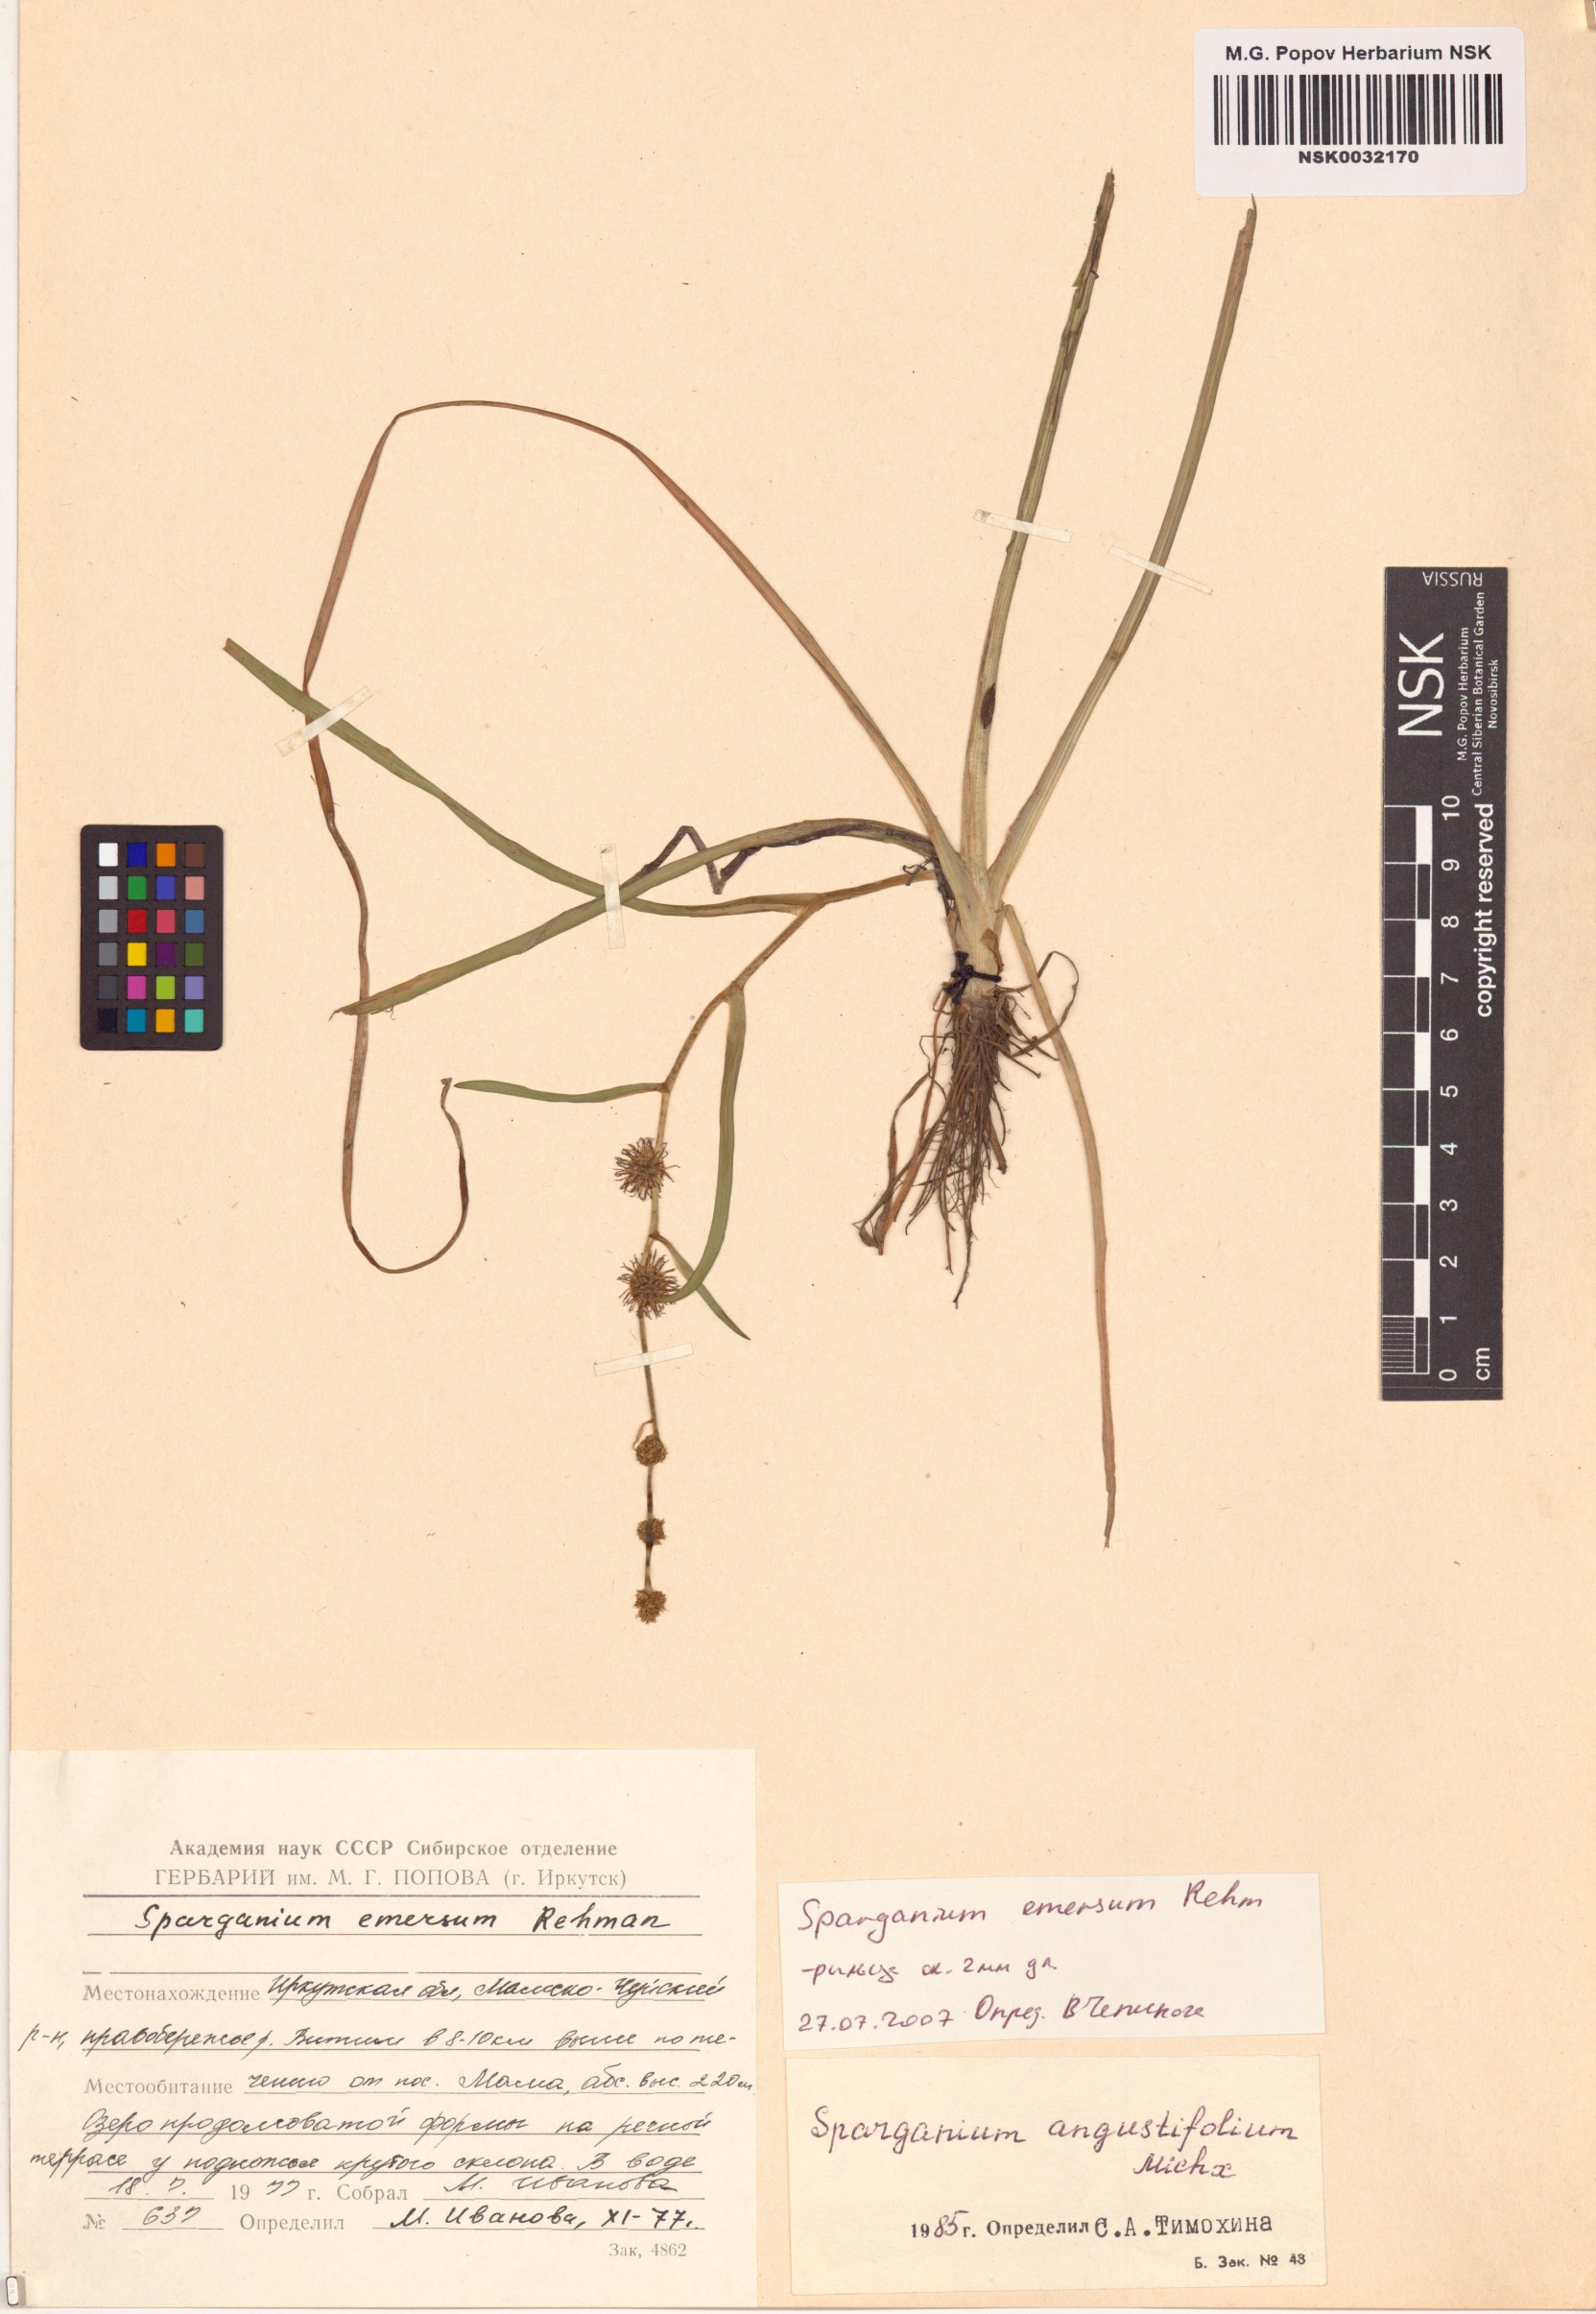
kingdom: Plantae
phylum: Tracheophyta
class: Liliopsida
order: Poales
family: Typhaceae
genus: Sparganium
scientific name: Sparganium emersum
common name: Unbranched bur-reed
